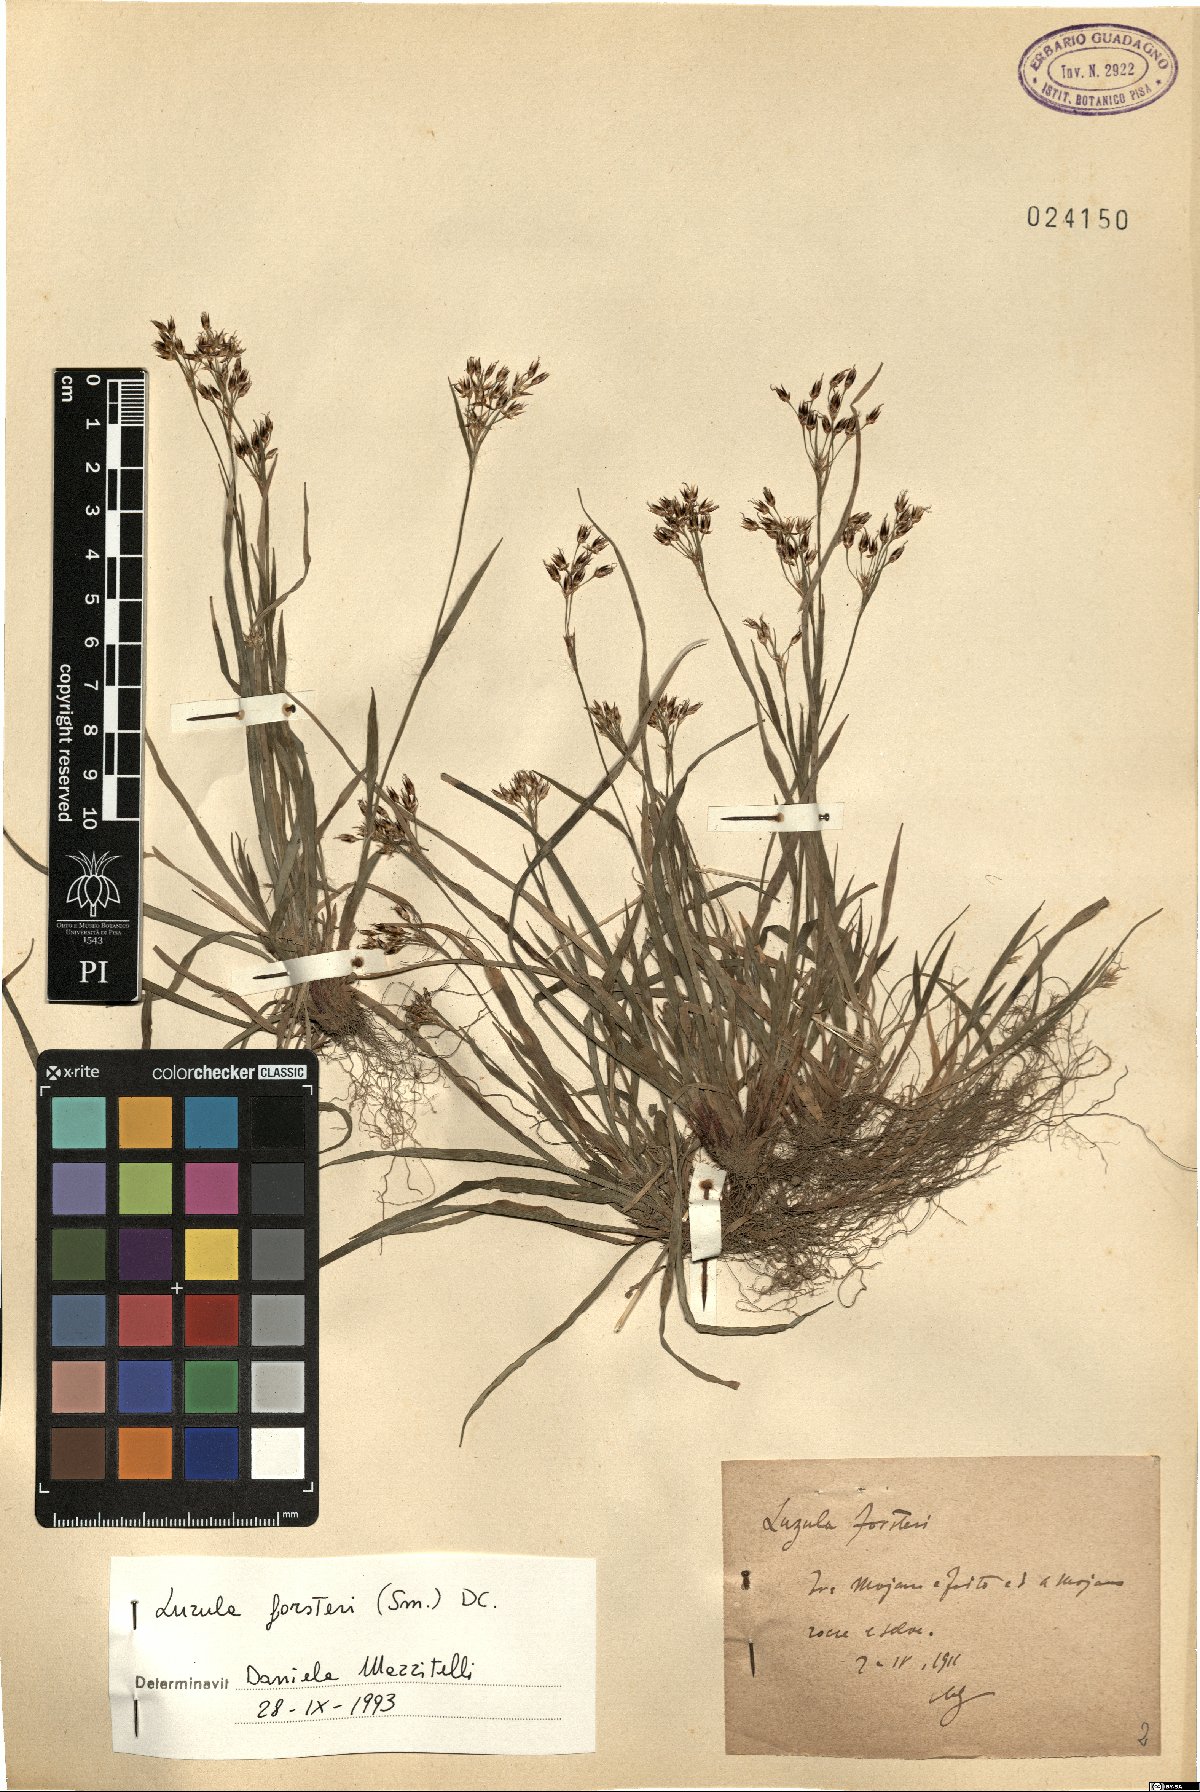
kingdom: Plantae
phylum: Tracheophyta
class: Liliopsida
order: Poales
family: Juncaceae
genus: Luzula
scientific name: Luzula forsteri
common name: Southern wood-rush
